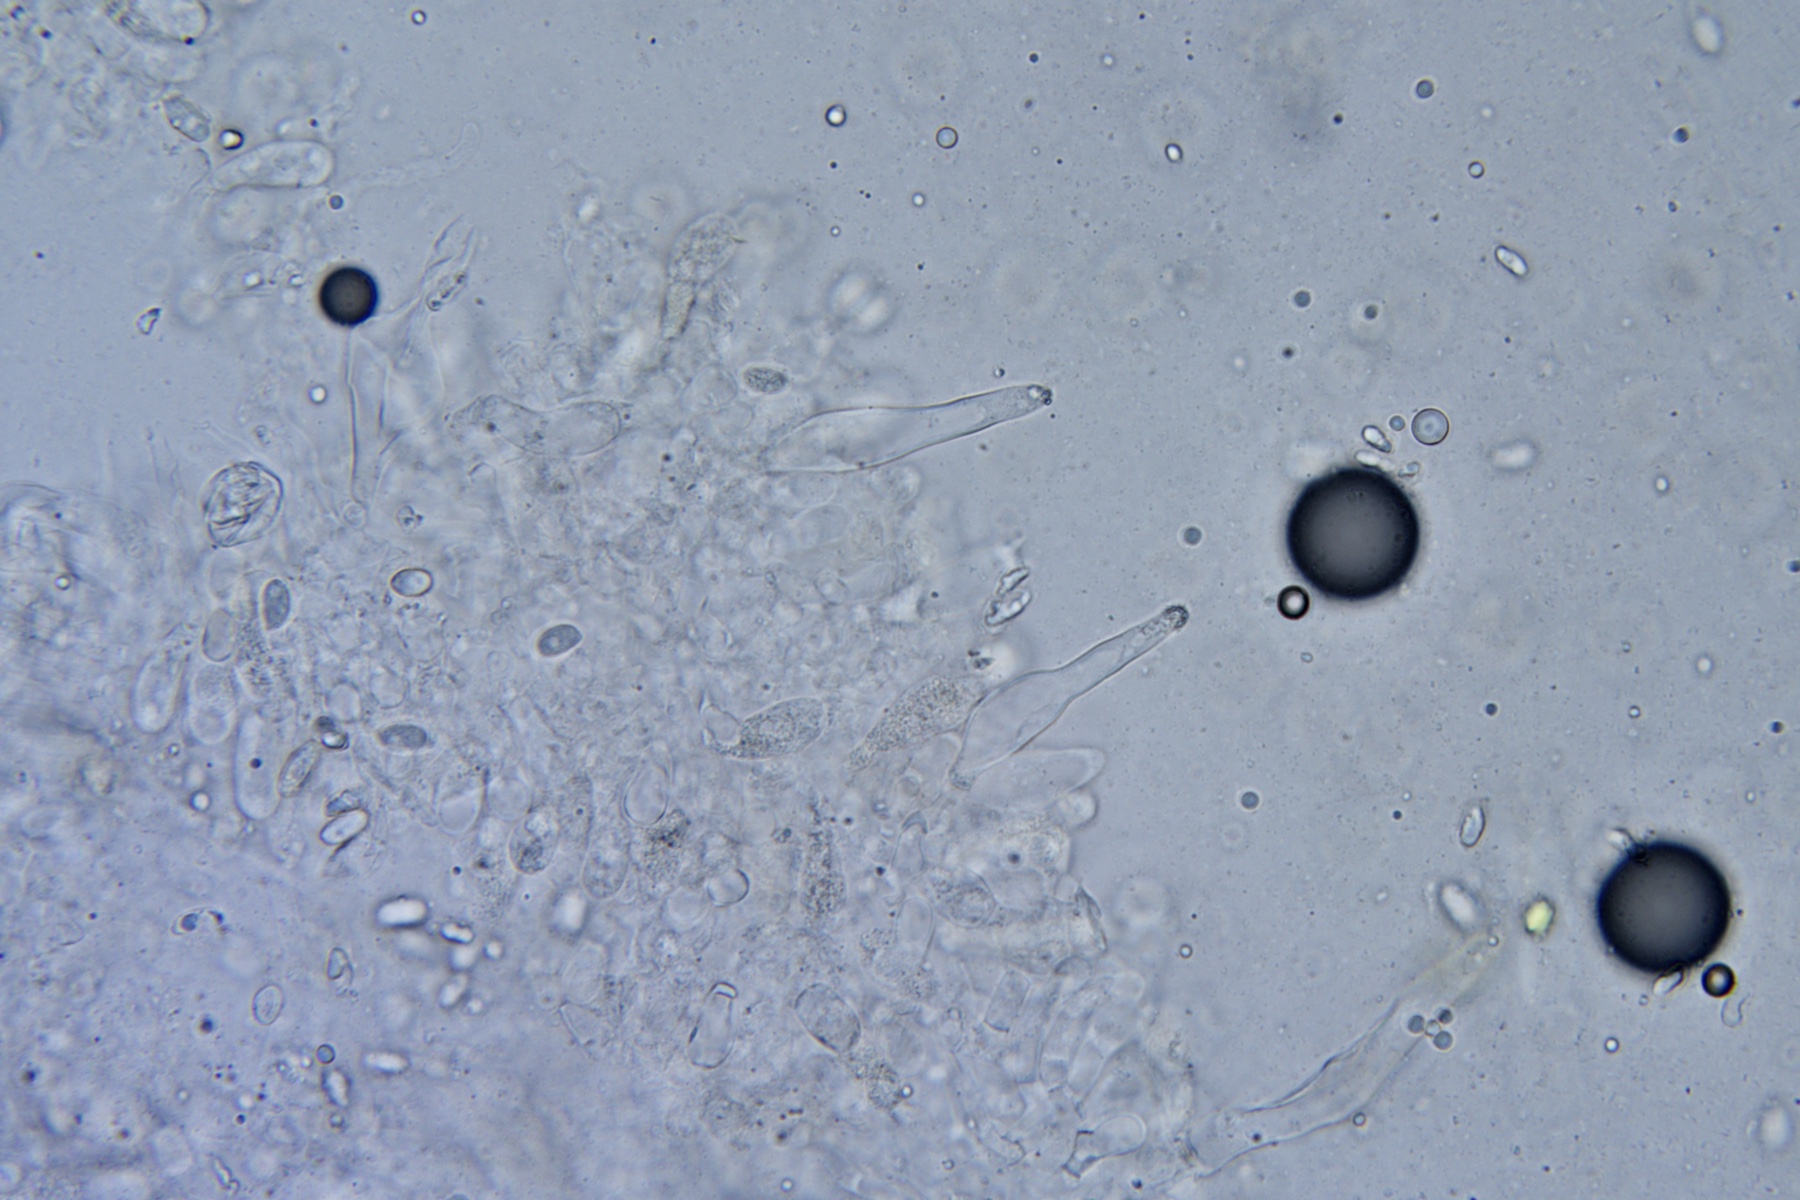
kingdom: Fungi
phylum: Basidiomycota
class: Agaricomycetes
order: Agaricales
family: Tricholomataceae
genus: Melanoleuca
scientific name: Melanoleuca strictipes
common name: sommer-munkehat
